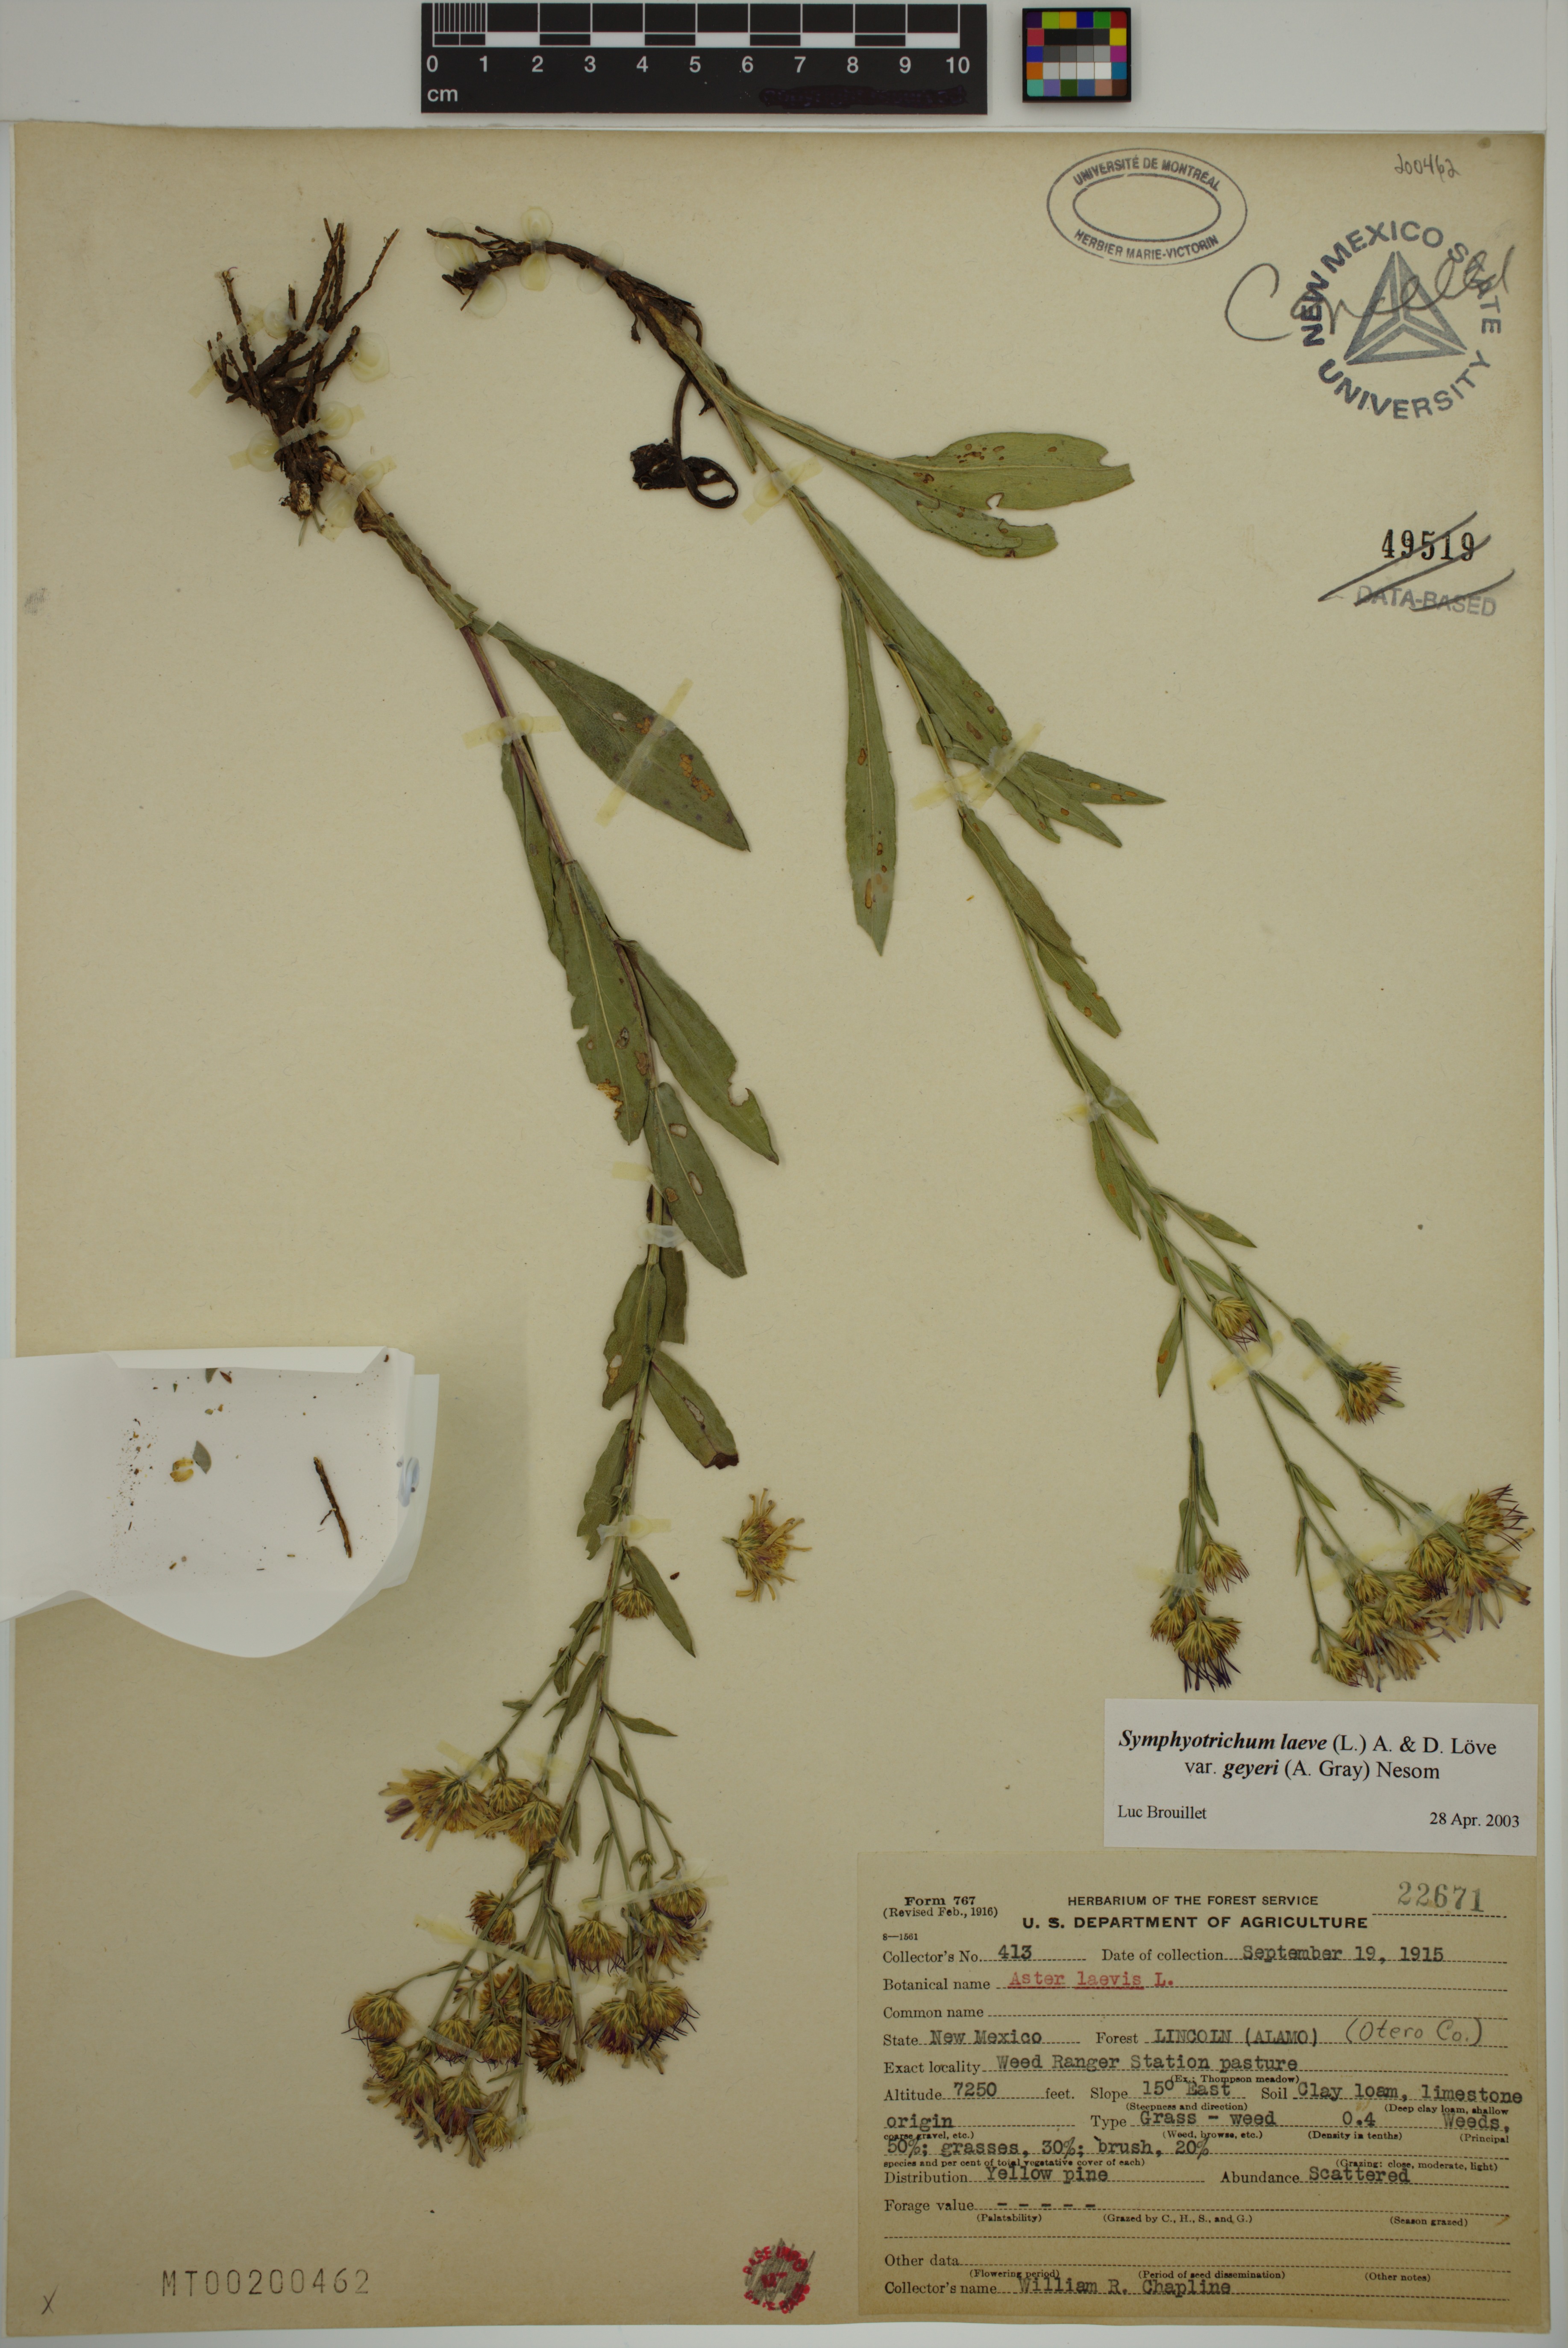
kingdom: Plantae
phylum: Tracheophyta
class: Magnoliopsida
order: Asterales
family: Asteraceae
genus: Symphyotrichum
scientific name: Symphyotrichum laeve
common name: Glaucous aster
